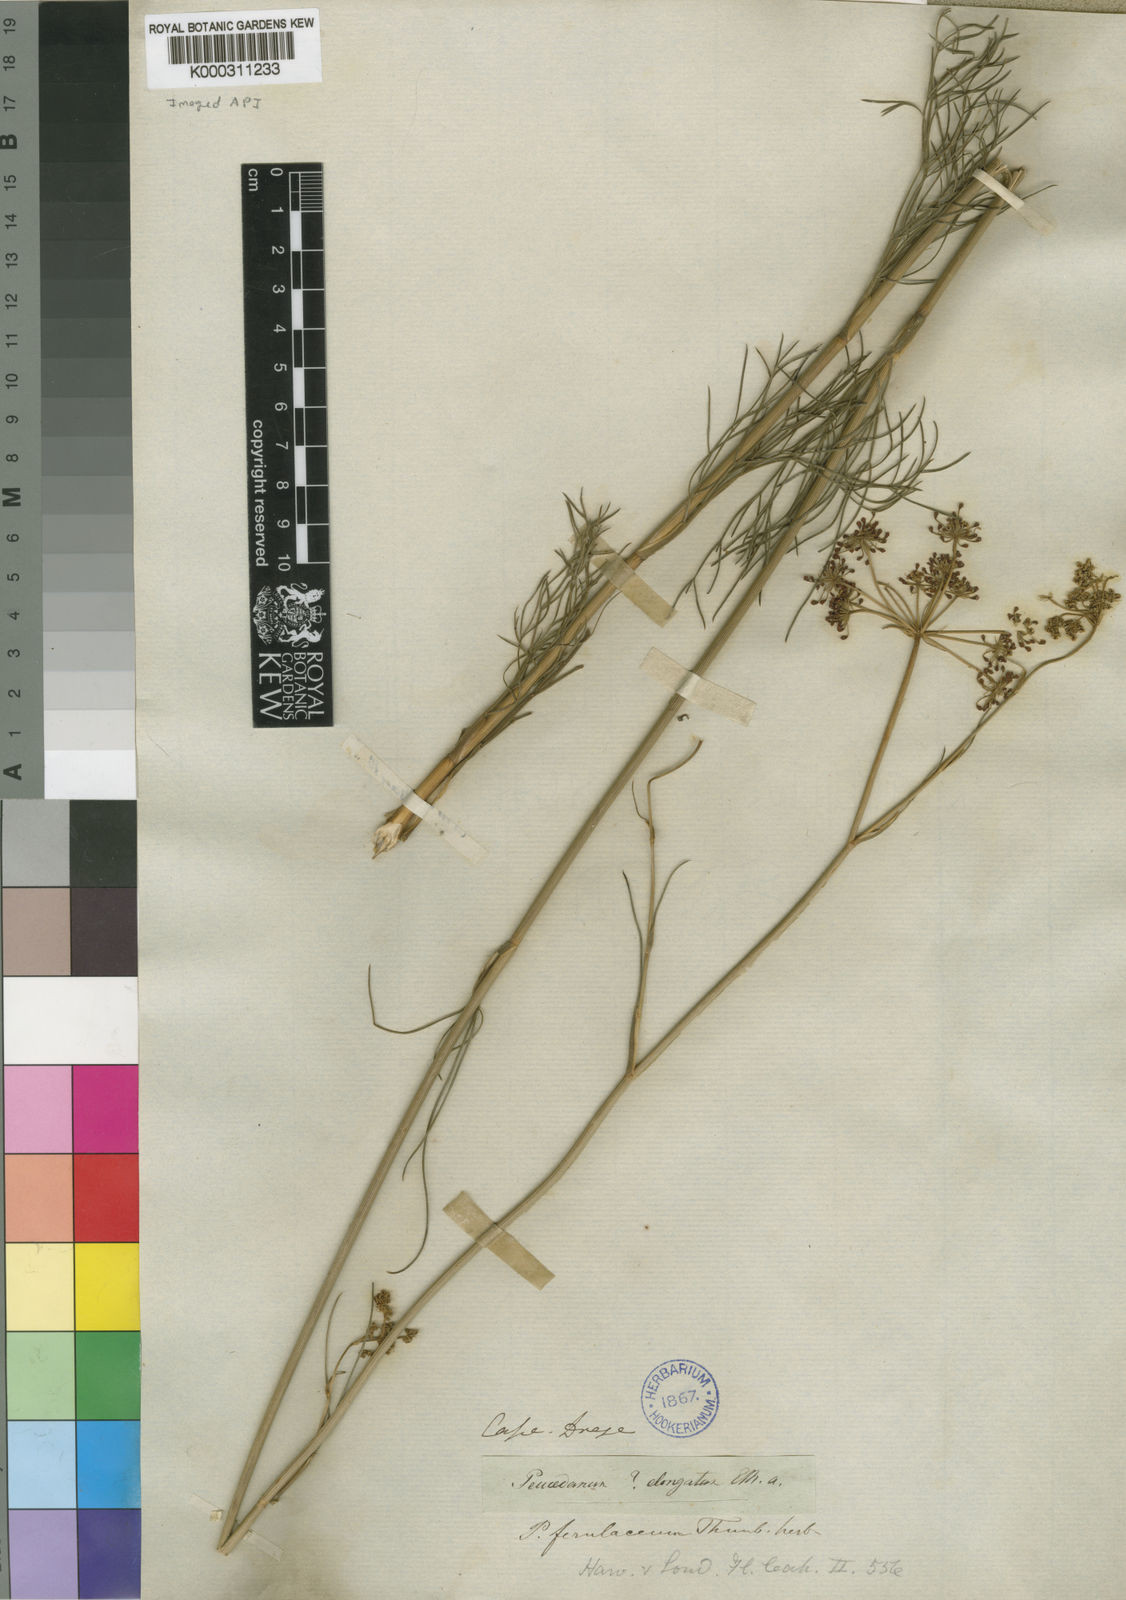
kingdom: Plantae
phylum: Tracheophyta
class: Magnoliopsida
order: Apiales
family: Apiaceae
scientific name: Apiaceae
